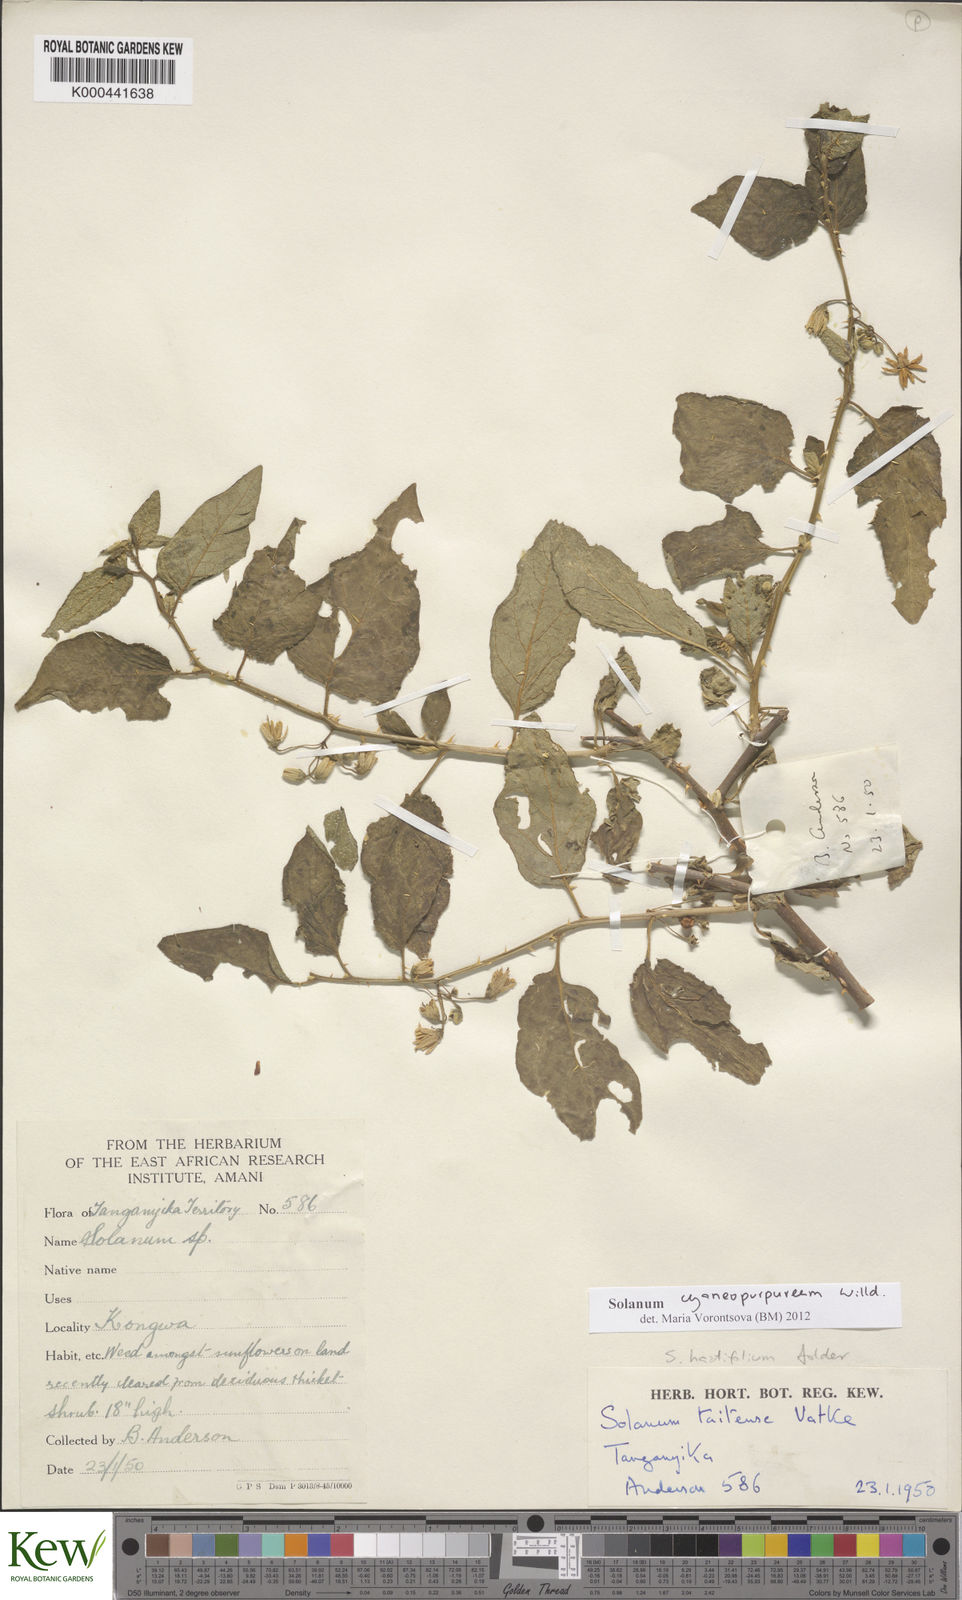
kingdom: Plantae
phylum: Tracheophyta
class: Magnoliopsida
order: Solanales
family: Solanaceae
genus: Solanum
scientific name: Solanum cyaneopurpureum
